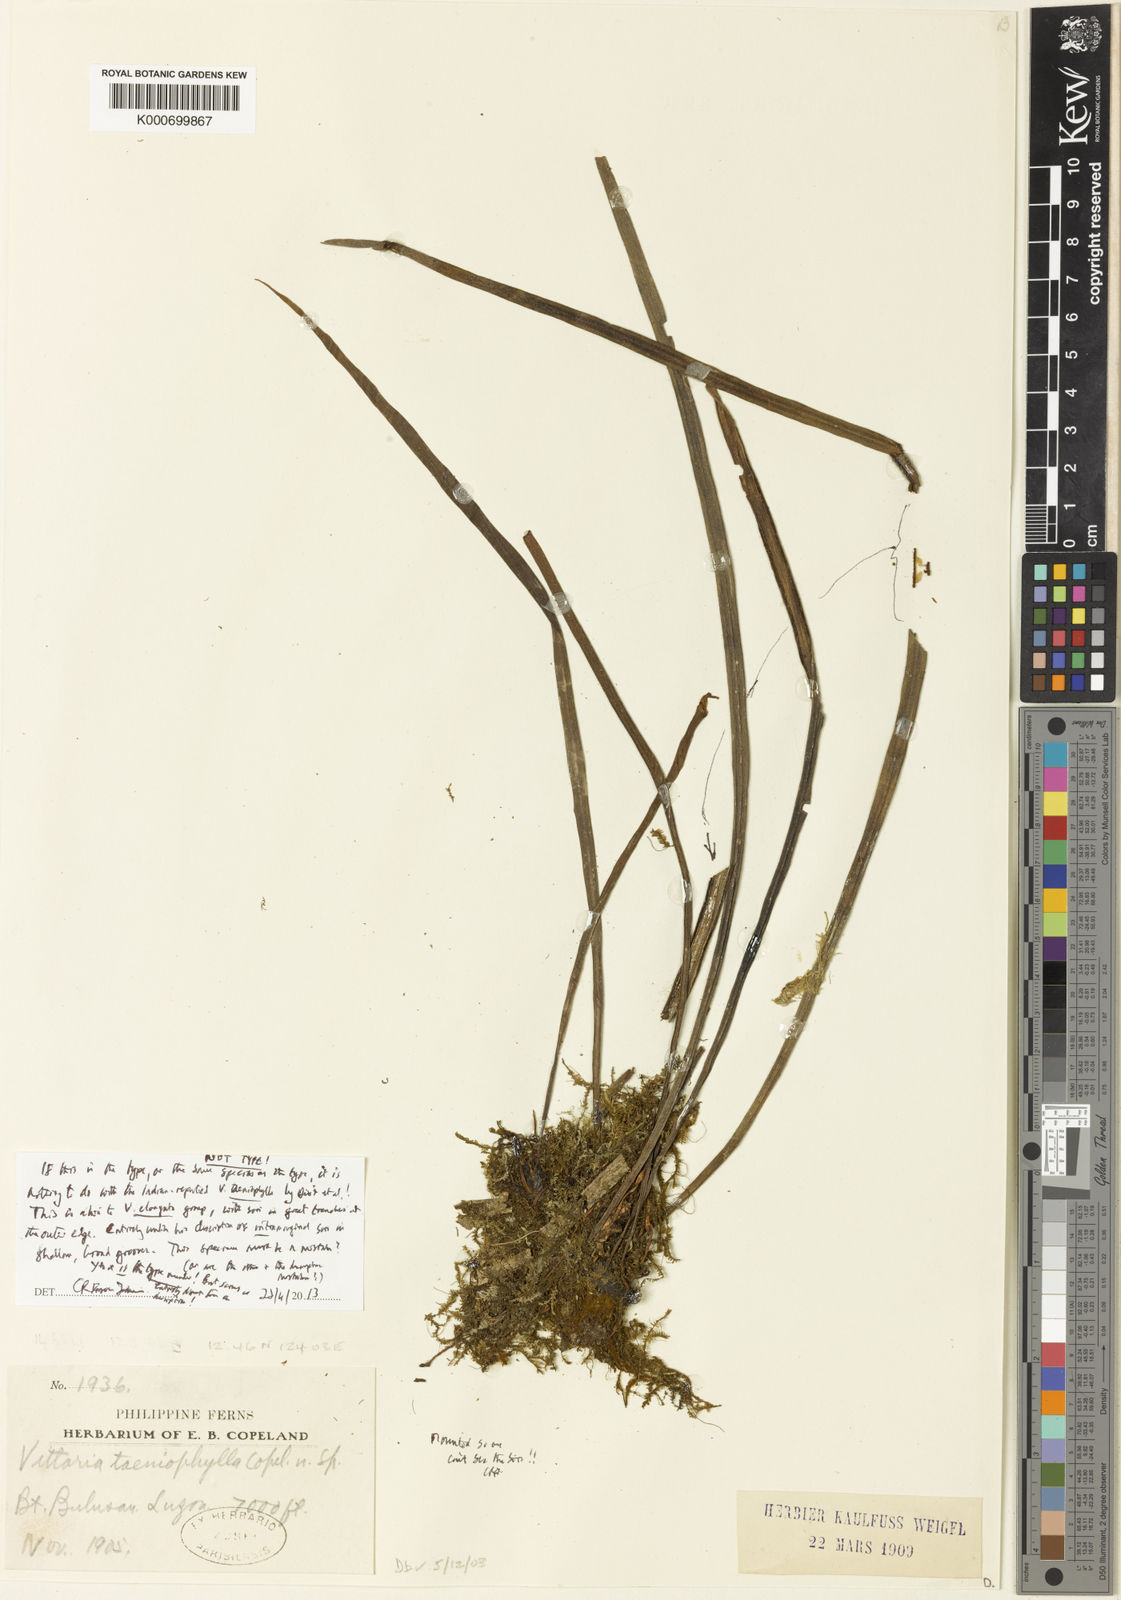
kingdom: Plantae
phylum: Tracheophyta
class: Polypodiopsida
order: Polypodiales
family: Pteridaceae
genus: Haplopteris
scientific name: Haplopteris taeniophylla
